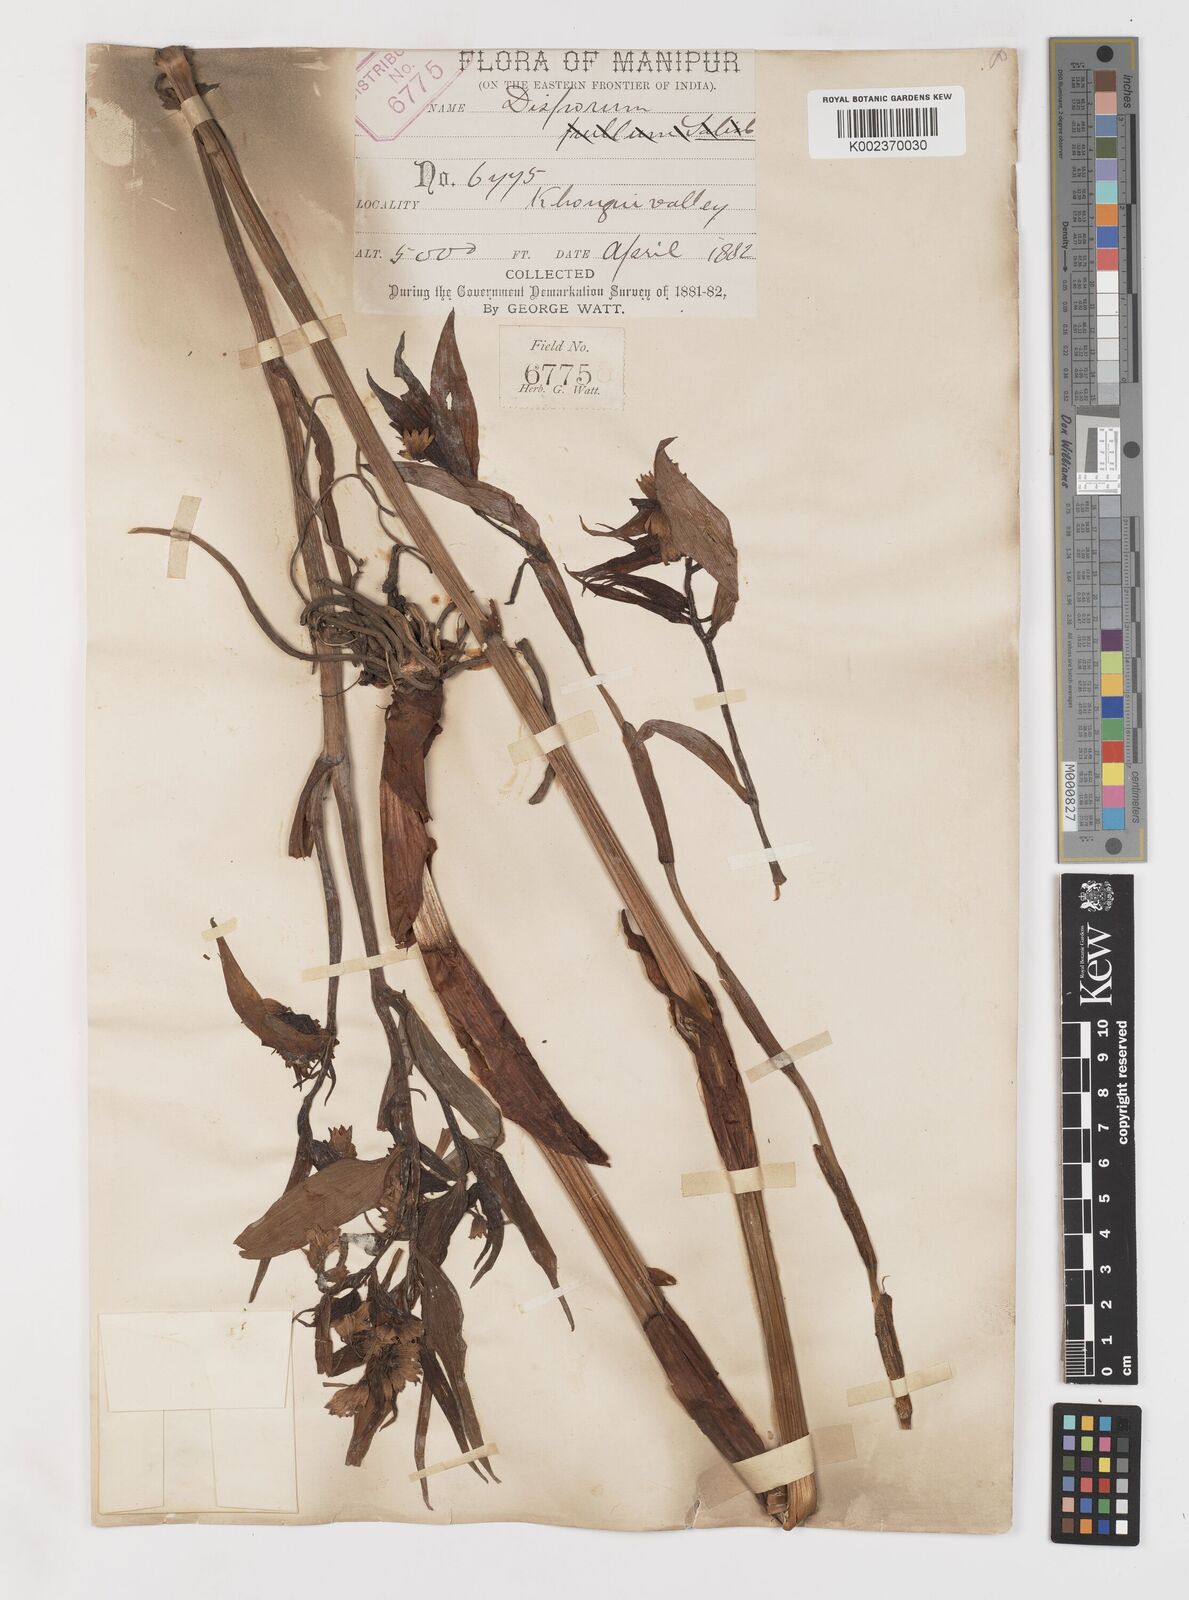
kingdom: Plantae
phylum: Tracheophyta
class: Liliopsida
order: Liliales
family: Colchicaceae
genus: Disporum
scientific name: Disporum cantoniense
